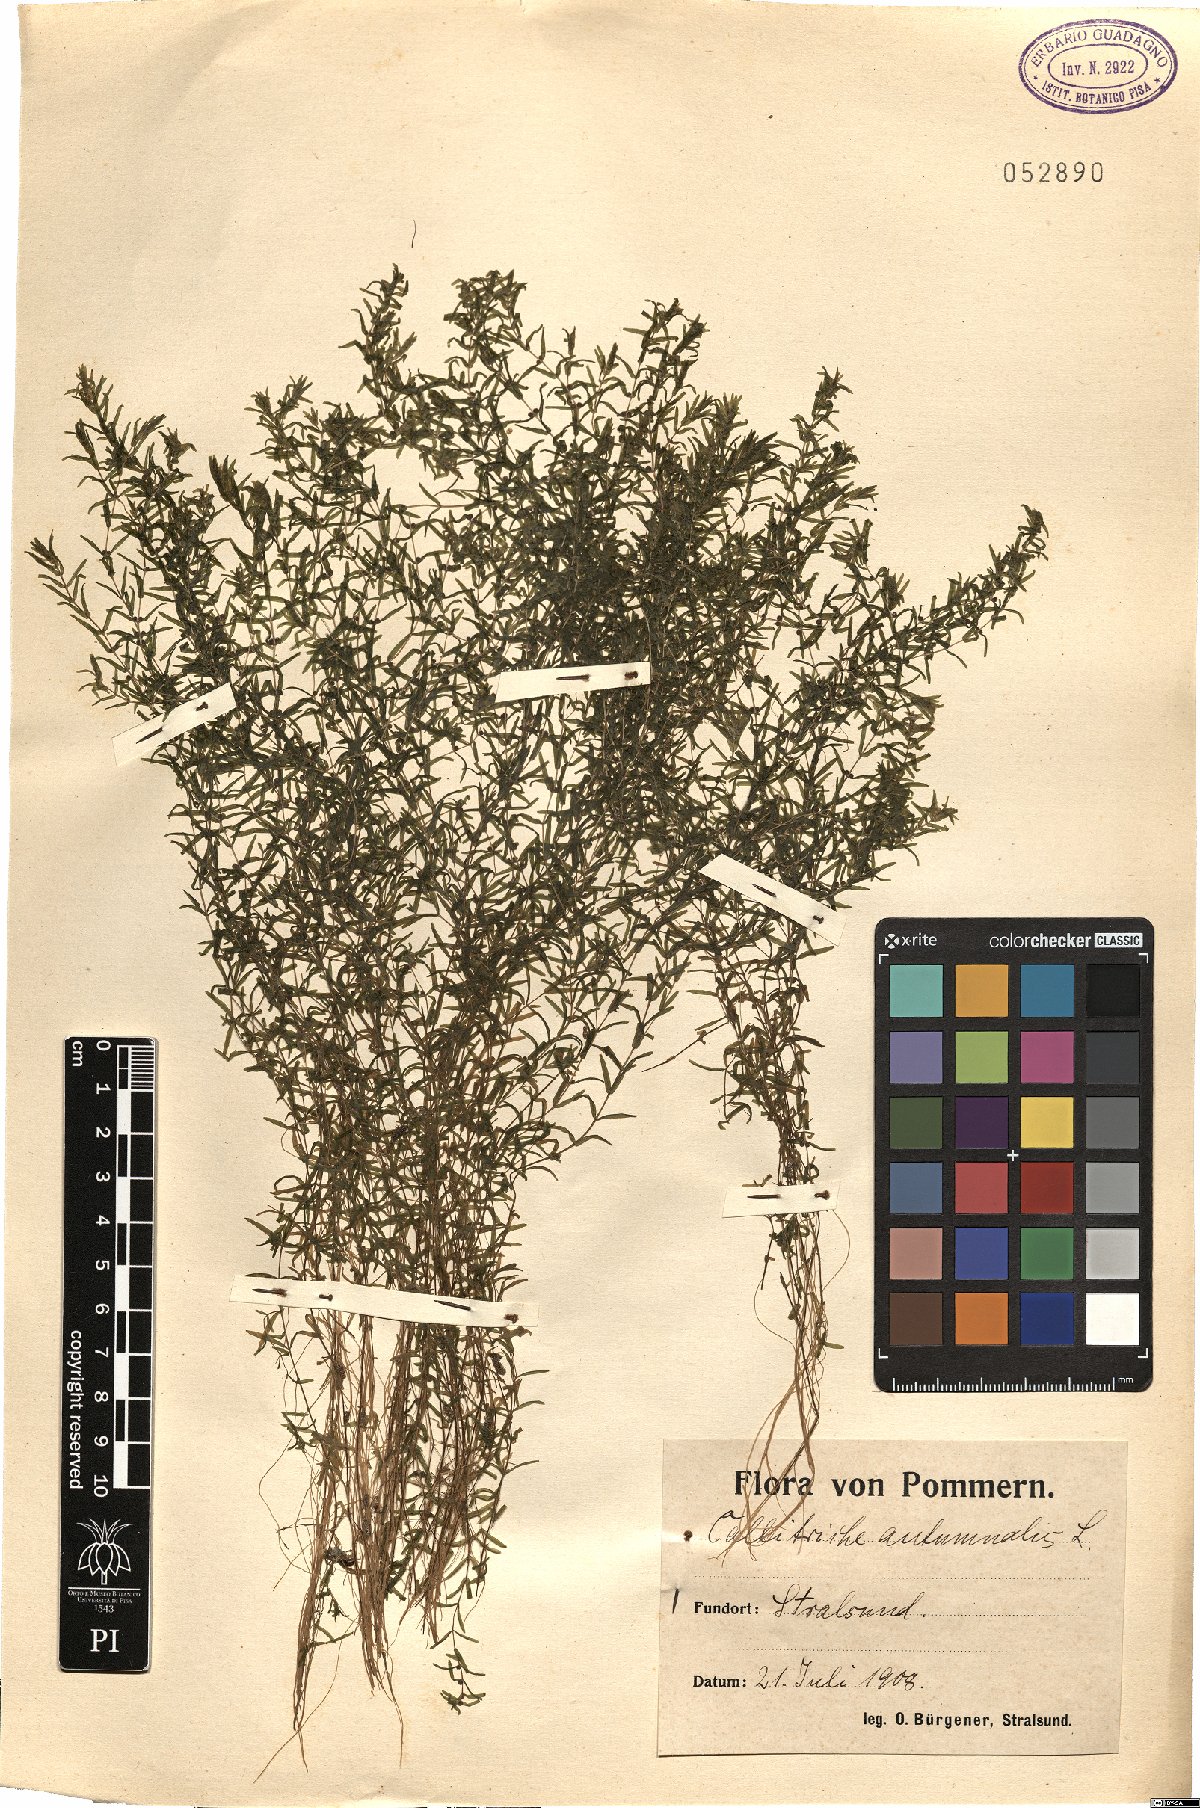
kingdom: Plantae
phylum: Tracheophyta
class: Magnoliopsida
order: Lamiales
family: Plantaginaceae
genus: Callitriche
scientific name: Callitriche hermaphroditica
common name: Autumnal water-starwort
